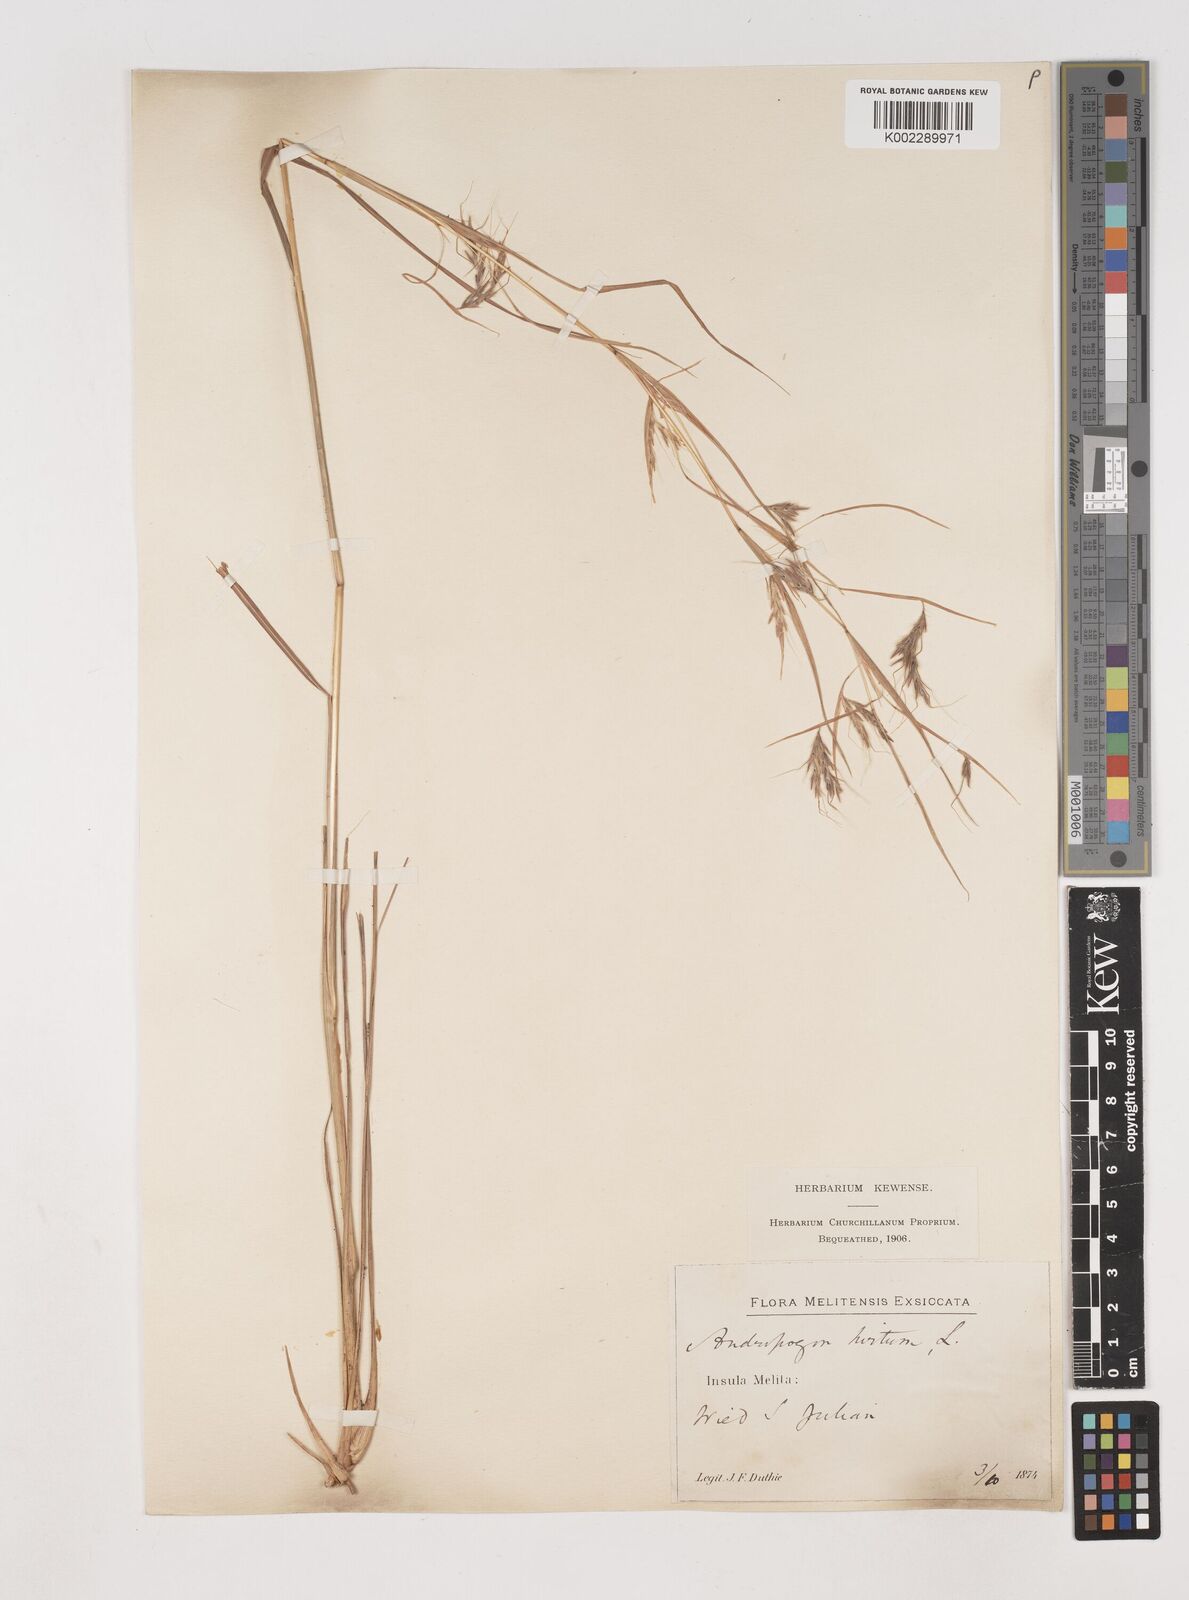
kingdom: Plantae
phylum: Tracheophyta
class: Liliopsida
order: Poales
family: Poaceae
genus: Hyparrhenia
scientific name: Hyparrhenia hirta
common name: Thatching grass
